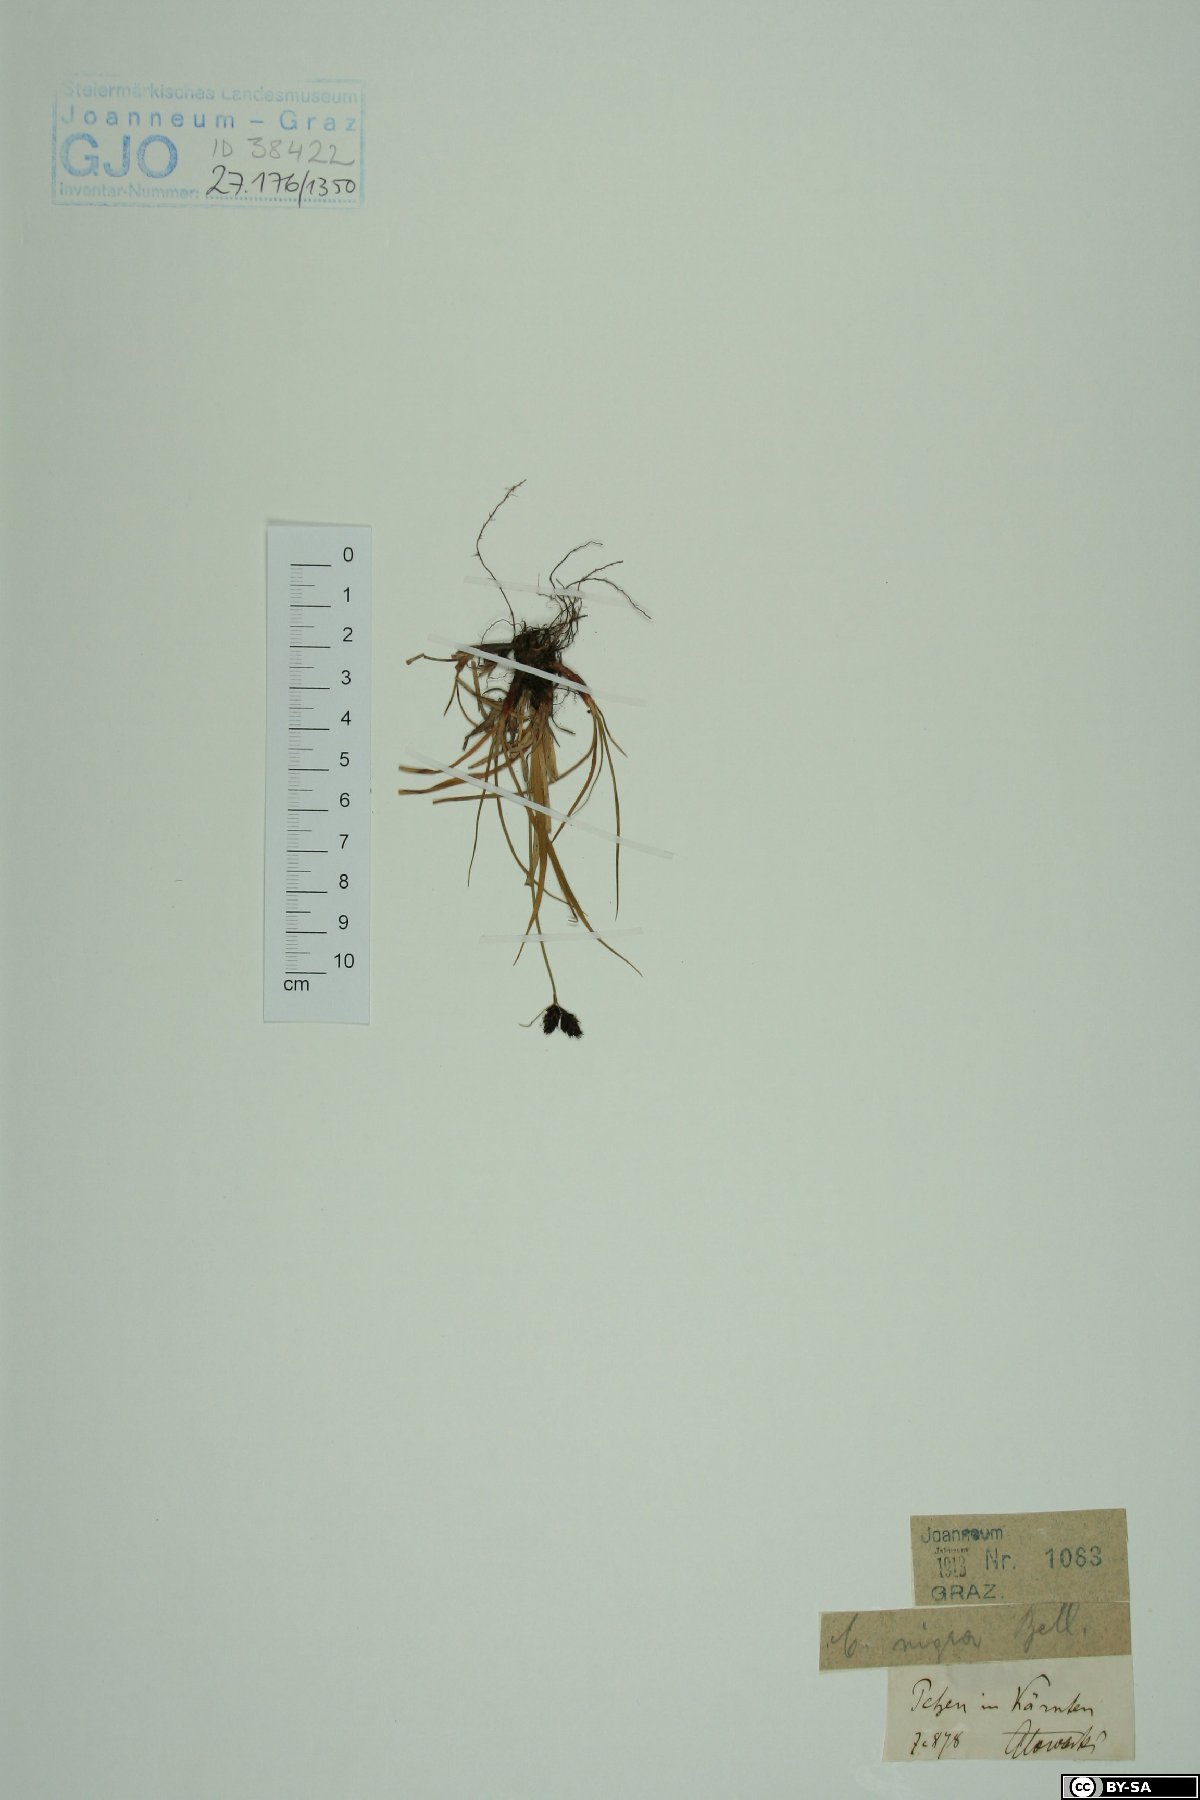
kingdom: Plantae
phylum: Tracheophyta
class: Liliopsida
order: Poales
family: Cyperaceae
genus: Carex
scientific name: Carex nigra
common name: Common sedge
